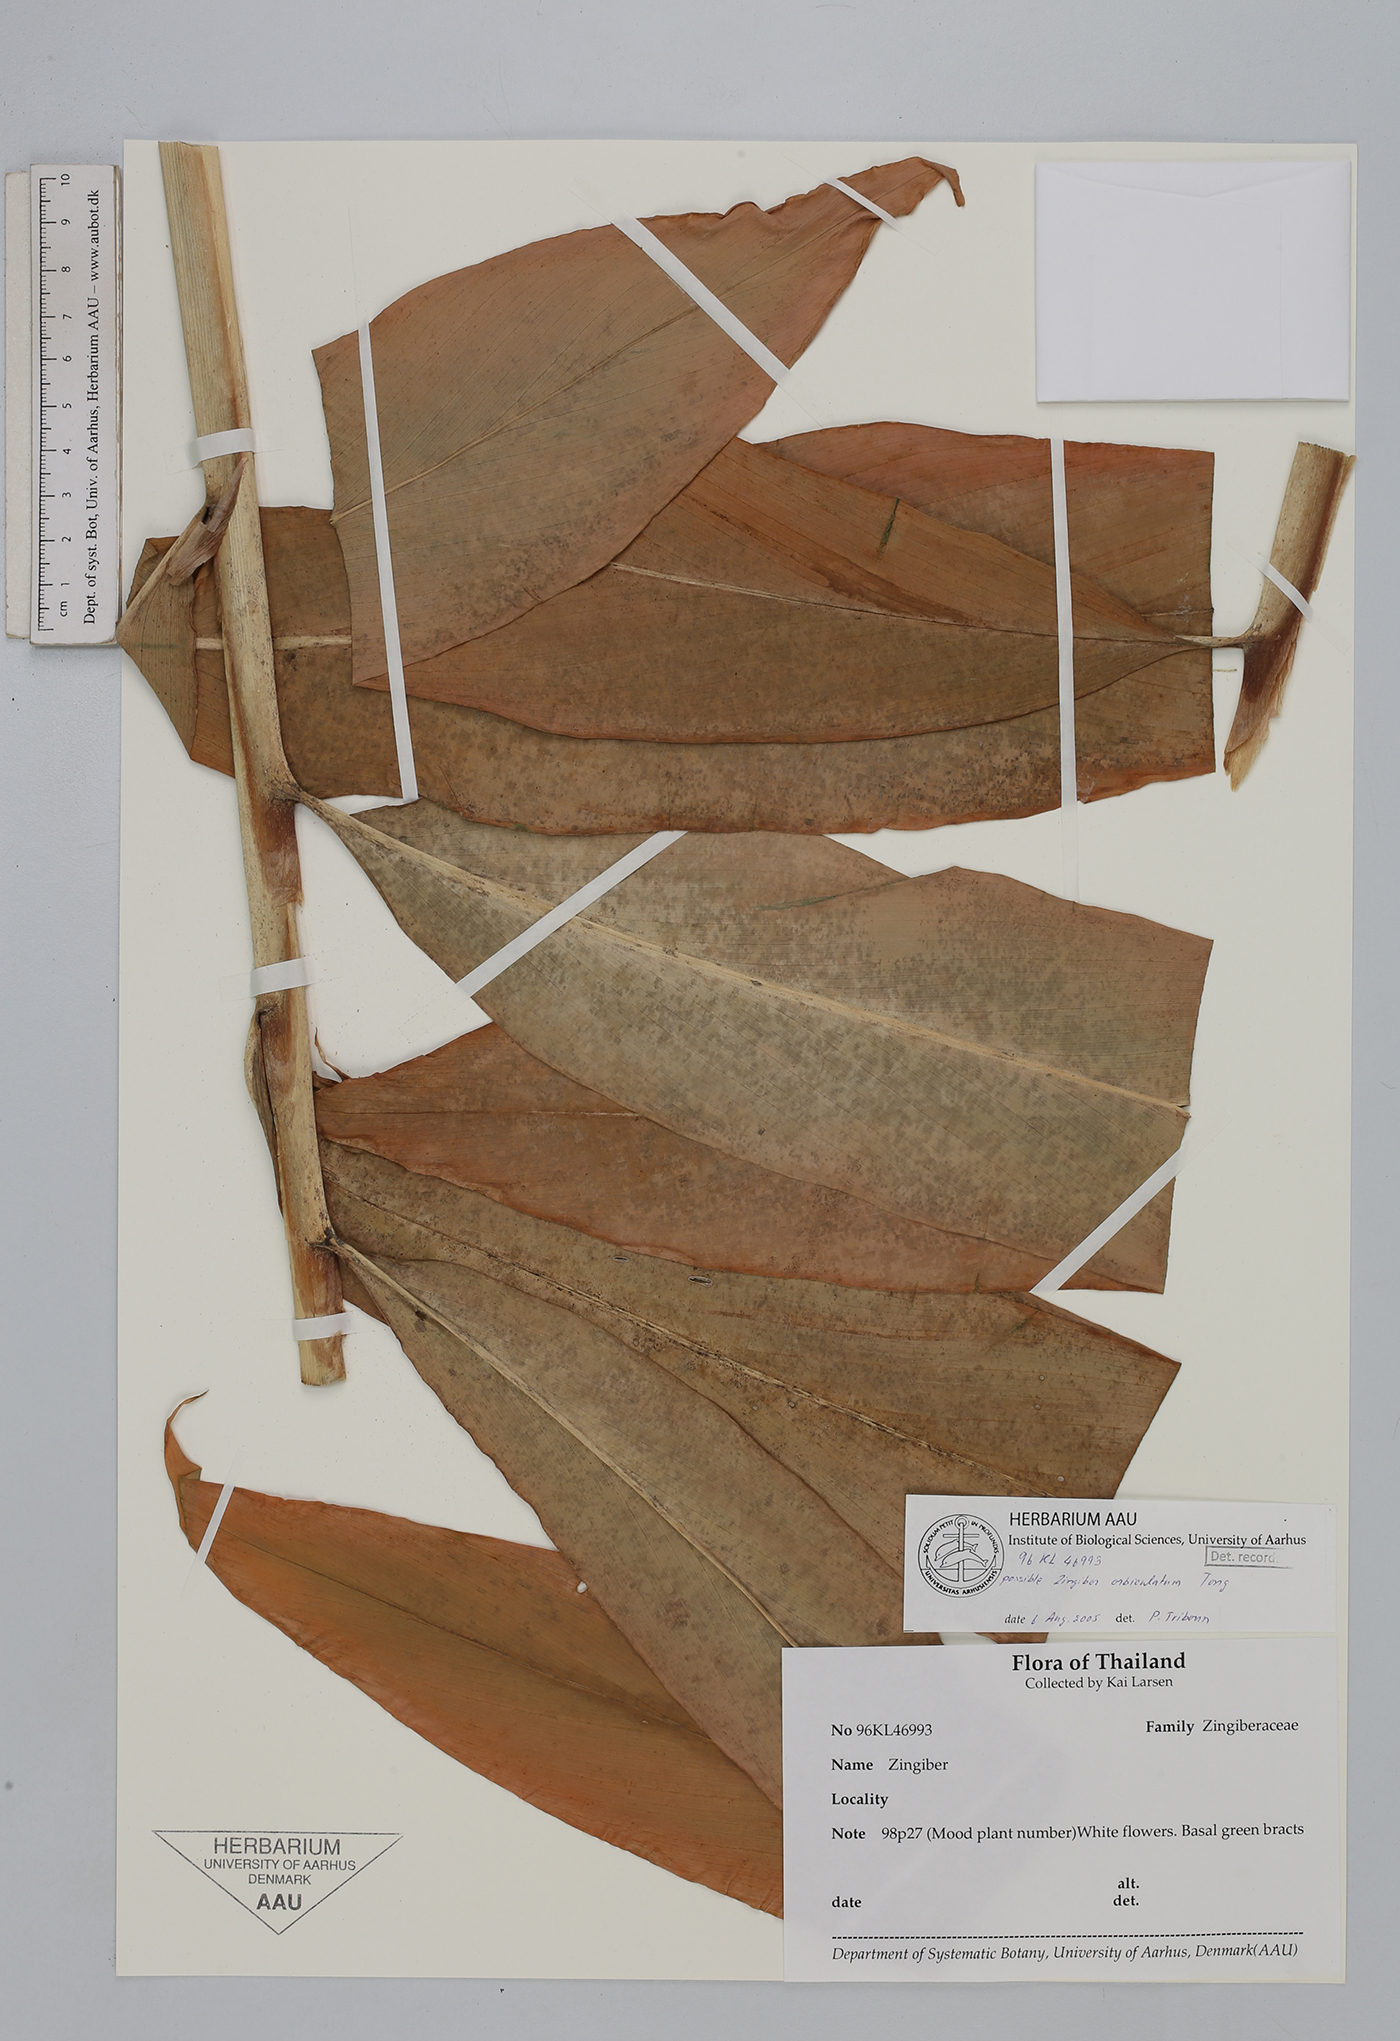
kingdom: Plantae
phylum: Tracheophyta
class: Liliopsida
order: Zingiberales
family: Zingiberaceae
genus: Zingiber
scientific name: Zingiber orbiculatum
